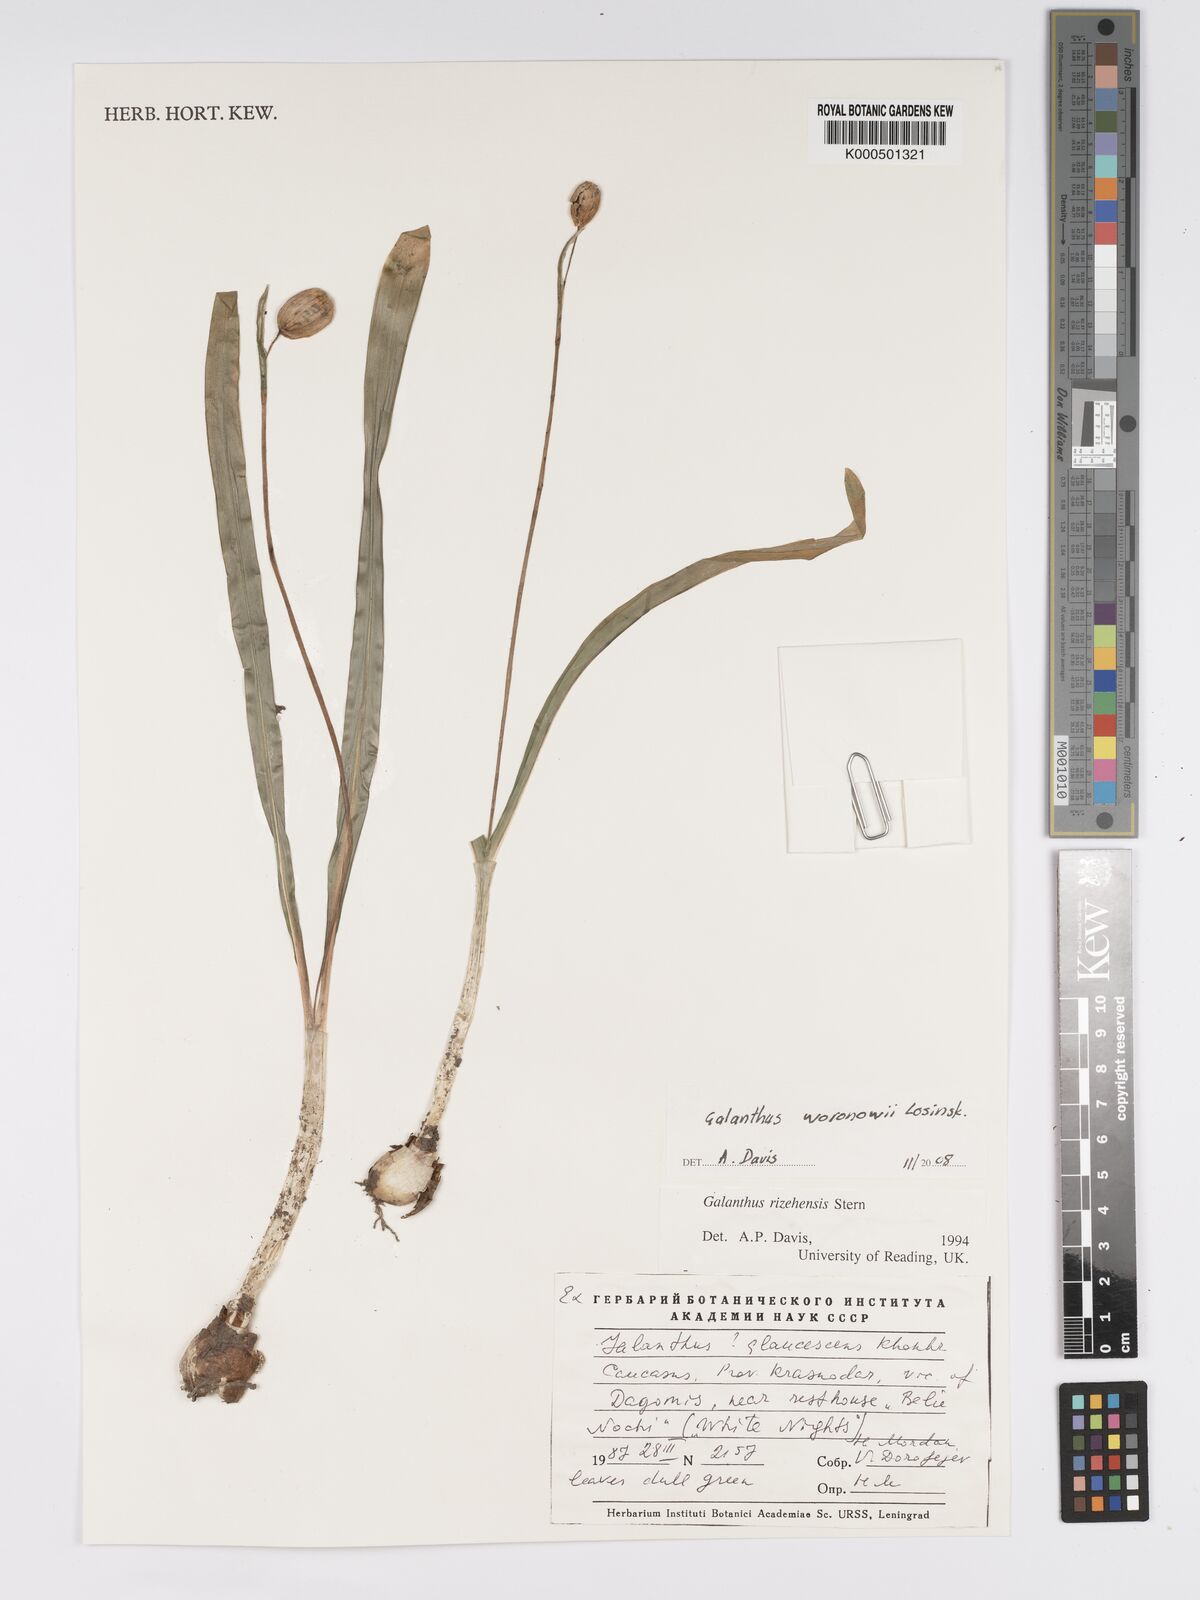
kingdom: Plantae
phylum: Tracheophyta
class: Liliopsida
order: Asparagales
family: Amaryllidaceae
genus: Galanthus
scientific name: Galanthus woronowii
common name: Green snowdrop
